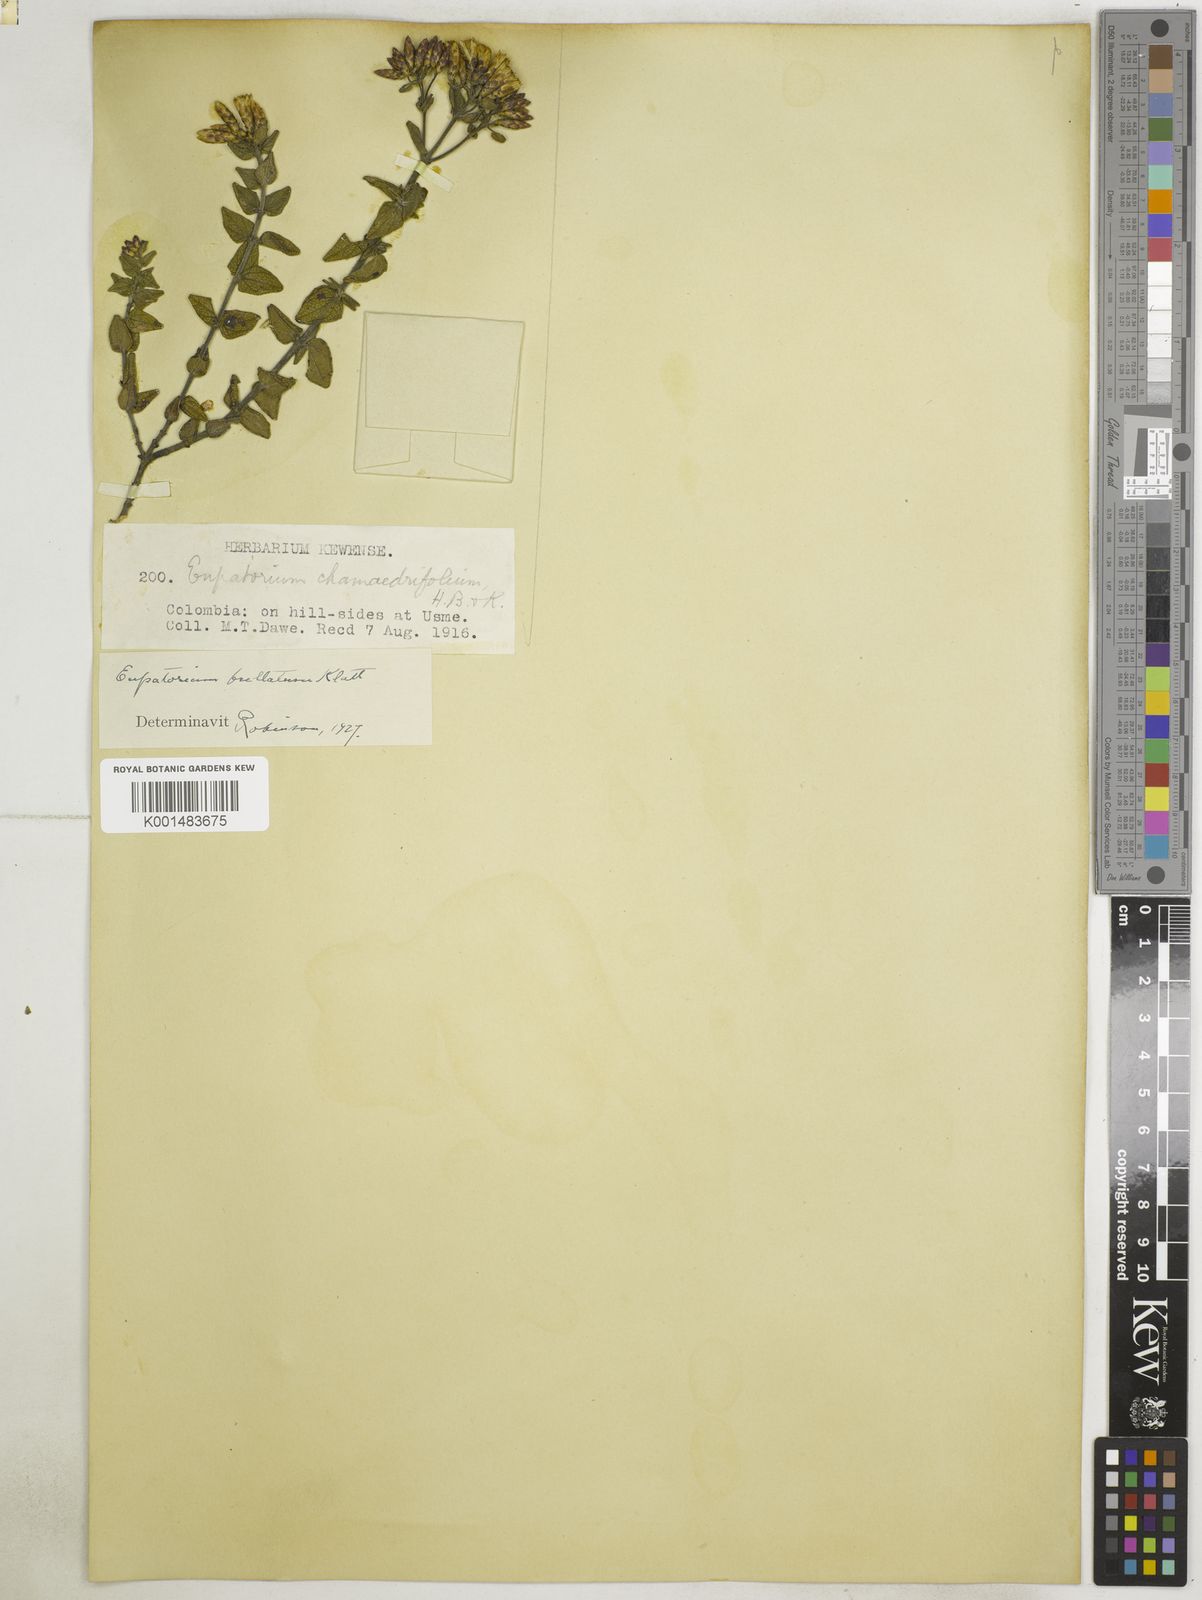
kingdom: Plantae
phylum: Tracheophyta
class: Magnoliopsida
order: Asterales
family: Asteraceae
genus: Chromolaena
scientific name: Chromolaena bullata
